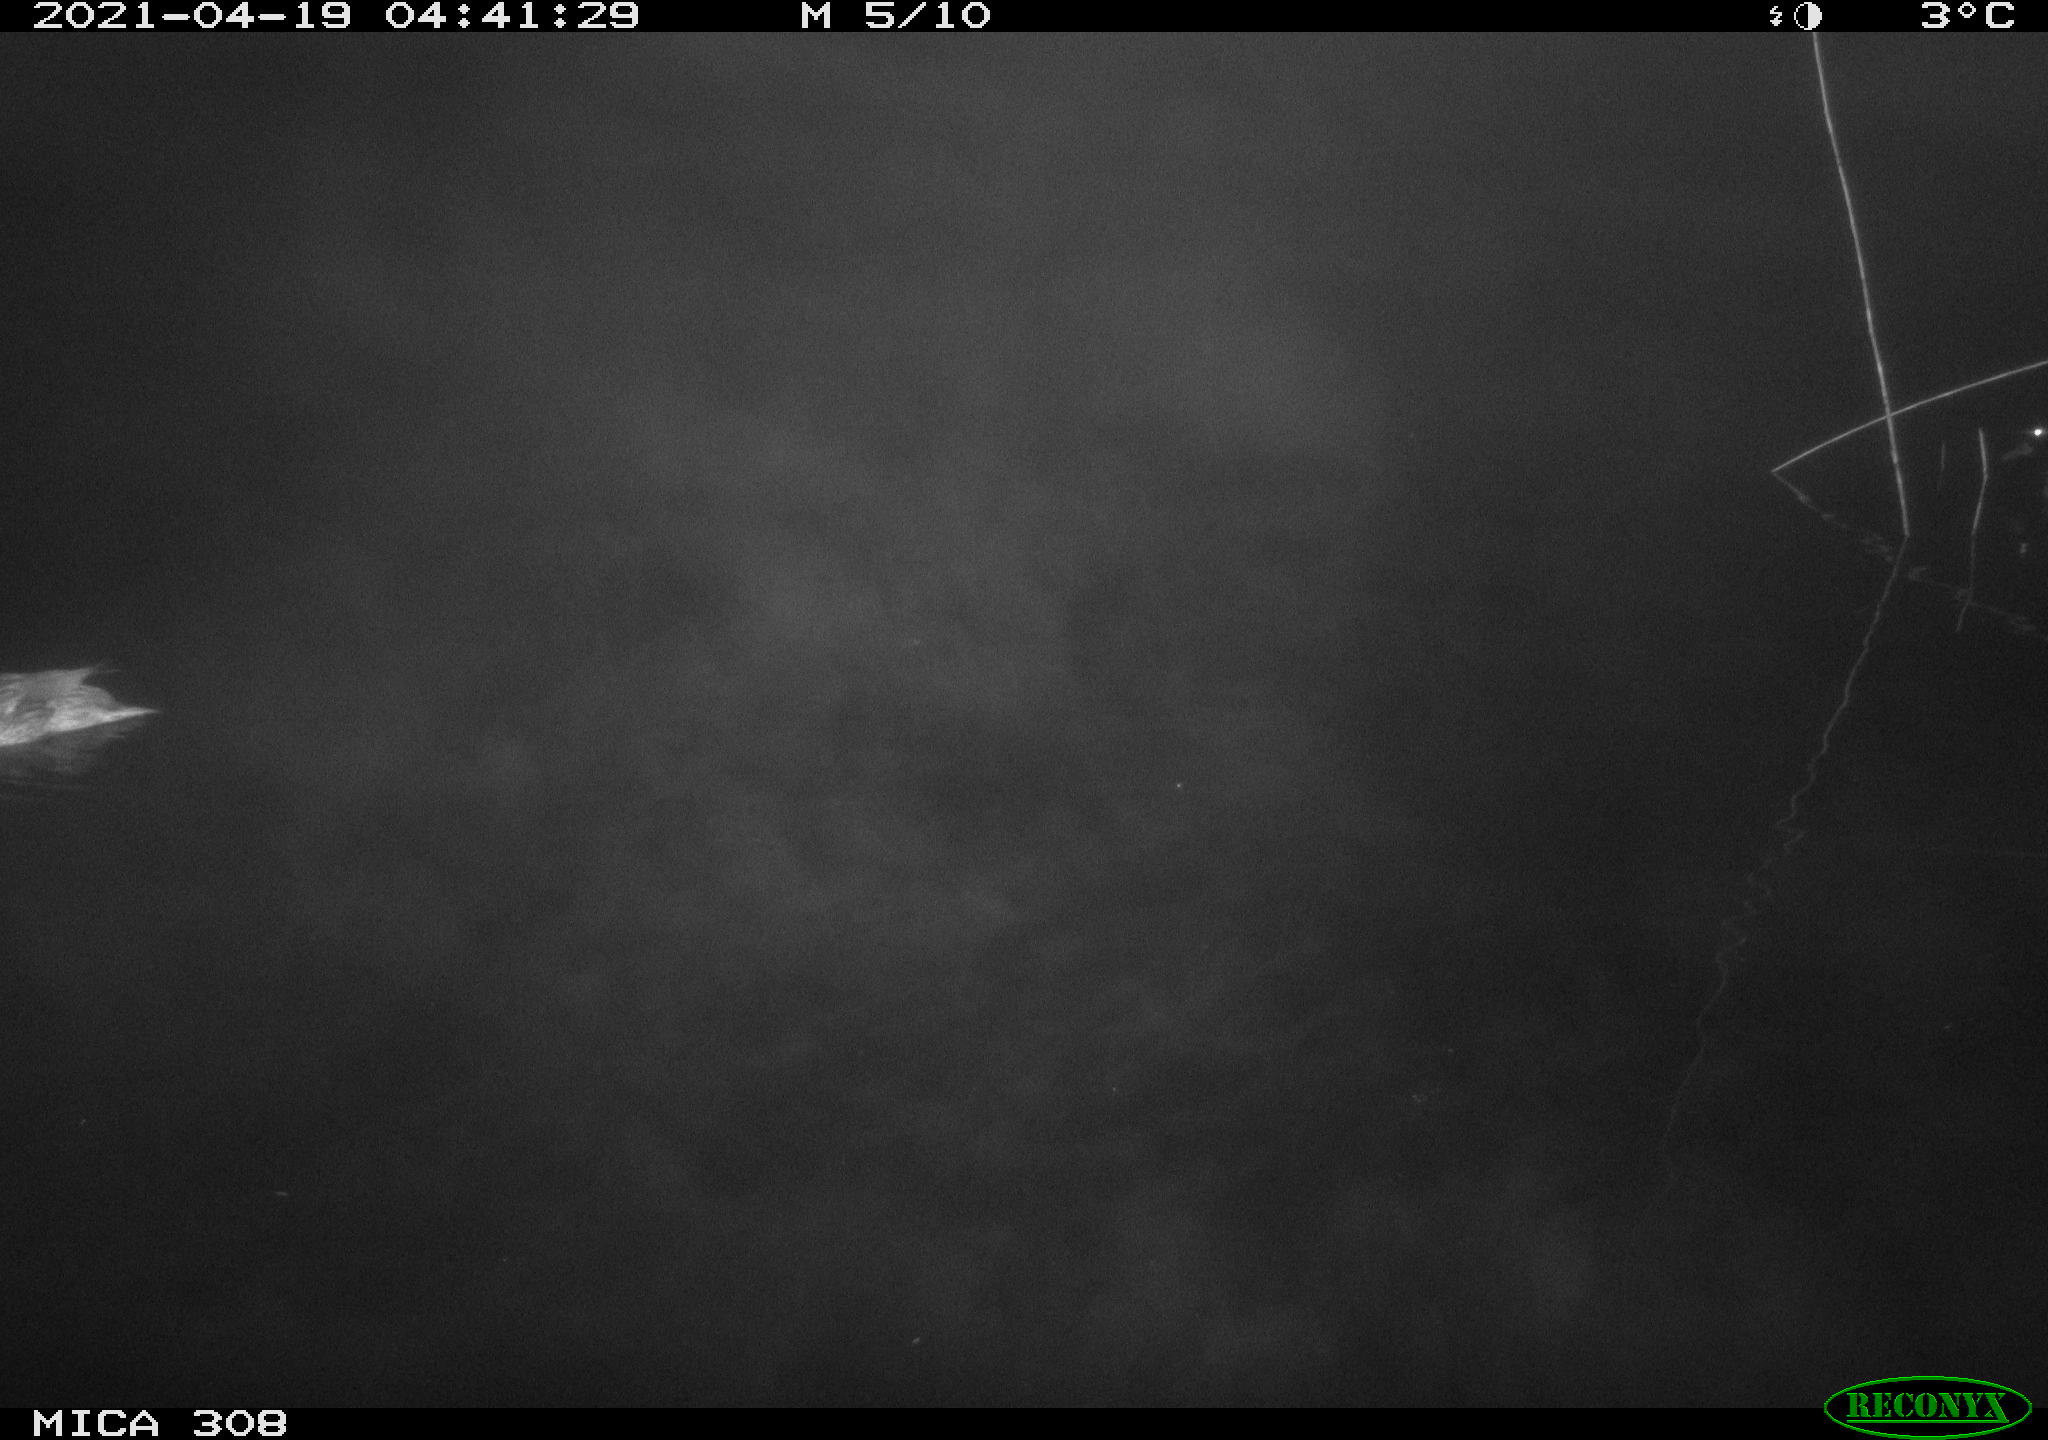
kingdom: Animalia
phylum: Chordata
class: Aves
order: Anseriformes
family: Anatidae
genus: Anas
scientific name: Anas platyrhynchos
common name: Mallard
